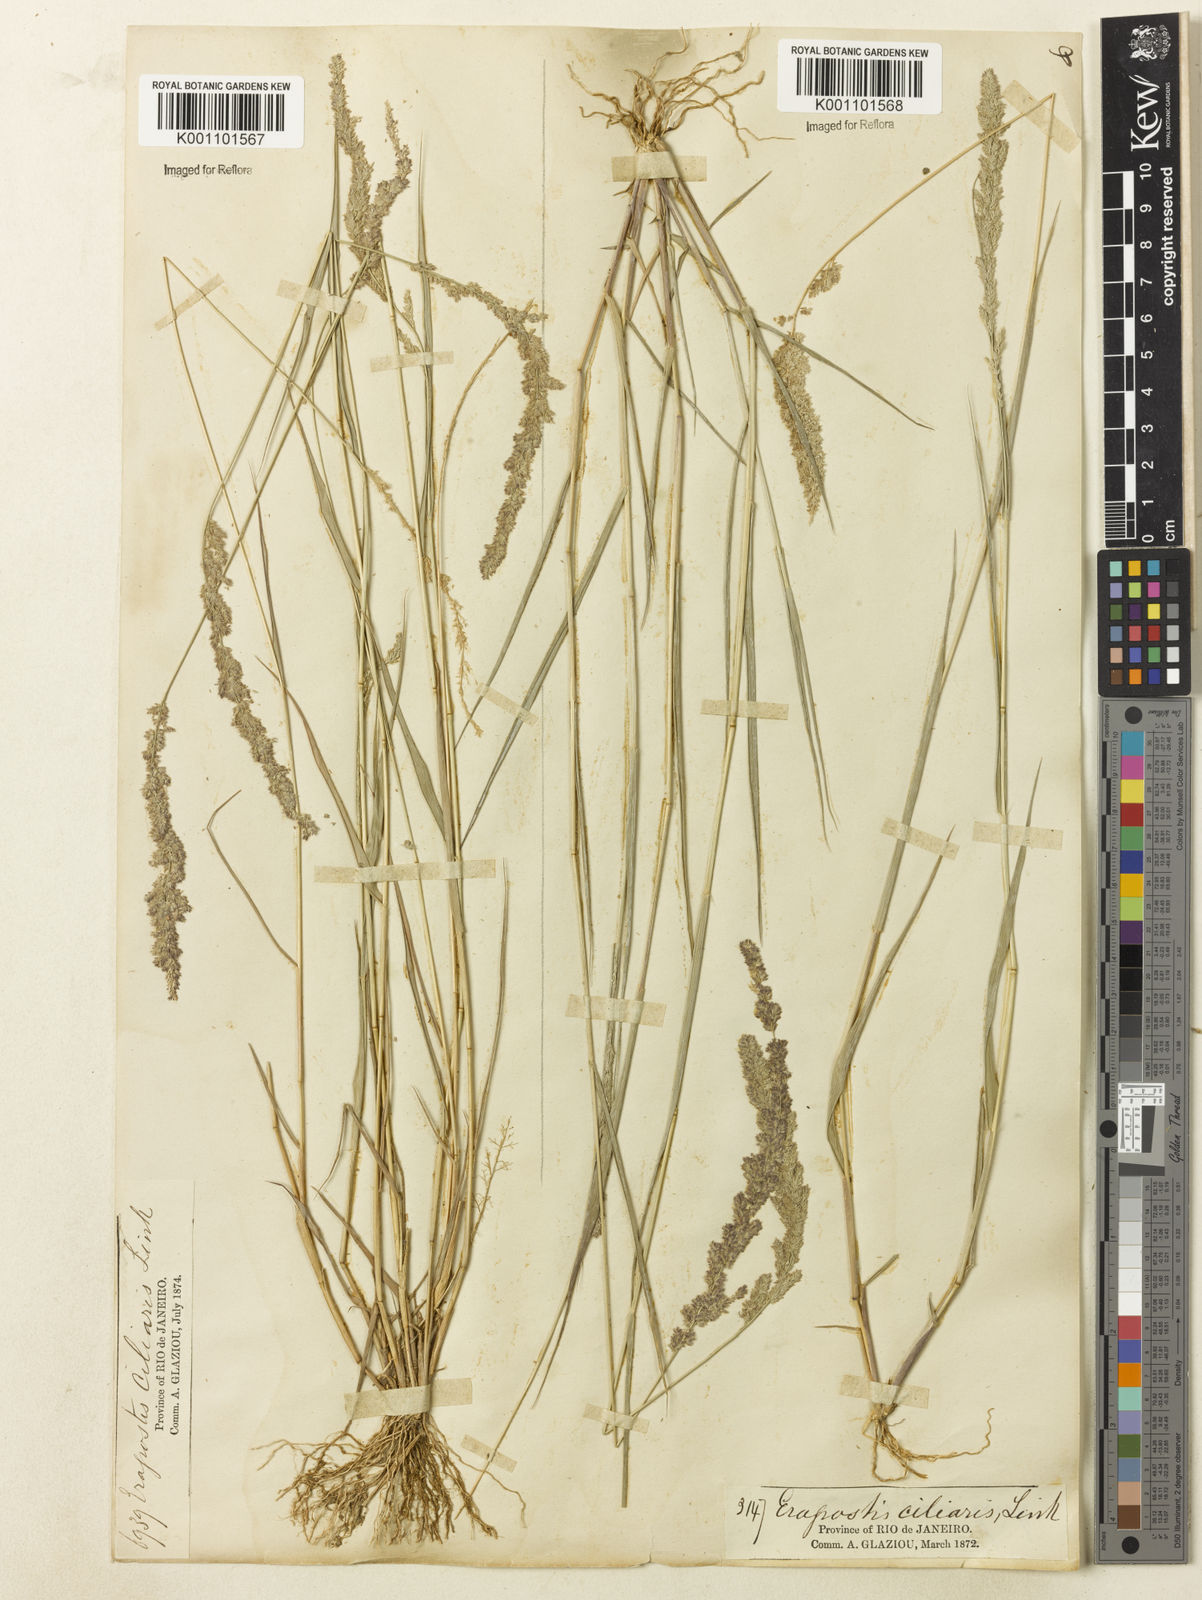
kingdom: Plantae
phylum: Tracheophyta
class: Liliopsida
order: Poales
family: Poaceae
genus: Eragrostis
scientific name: Eragrostis ciliaris
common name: Gophertail lovegrass
